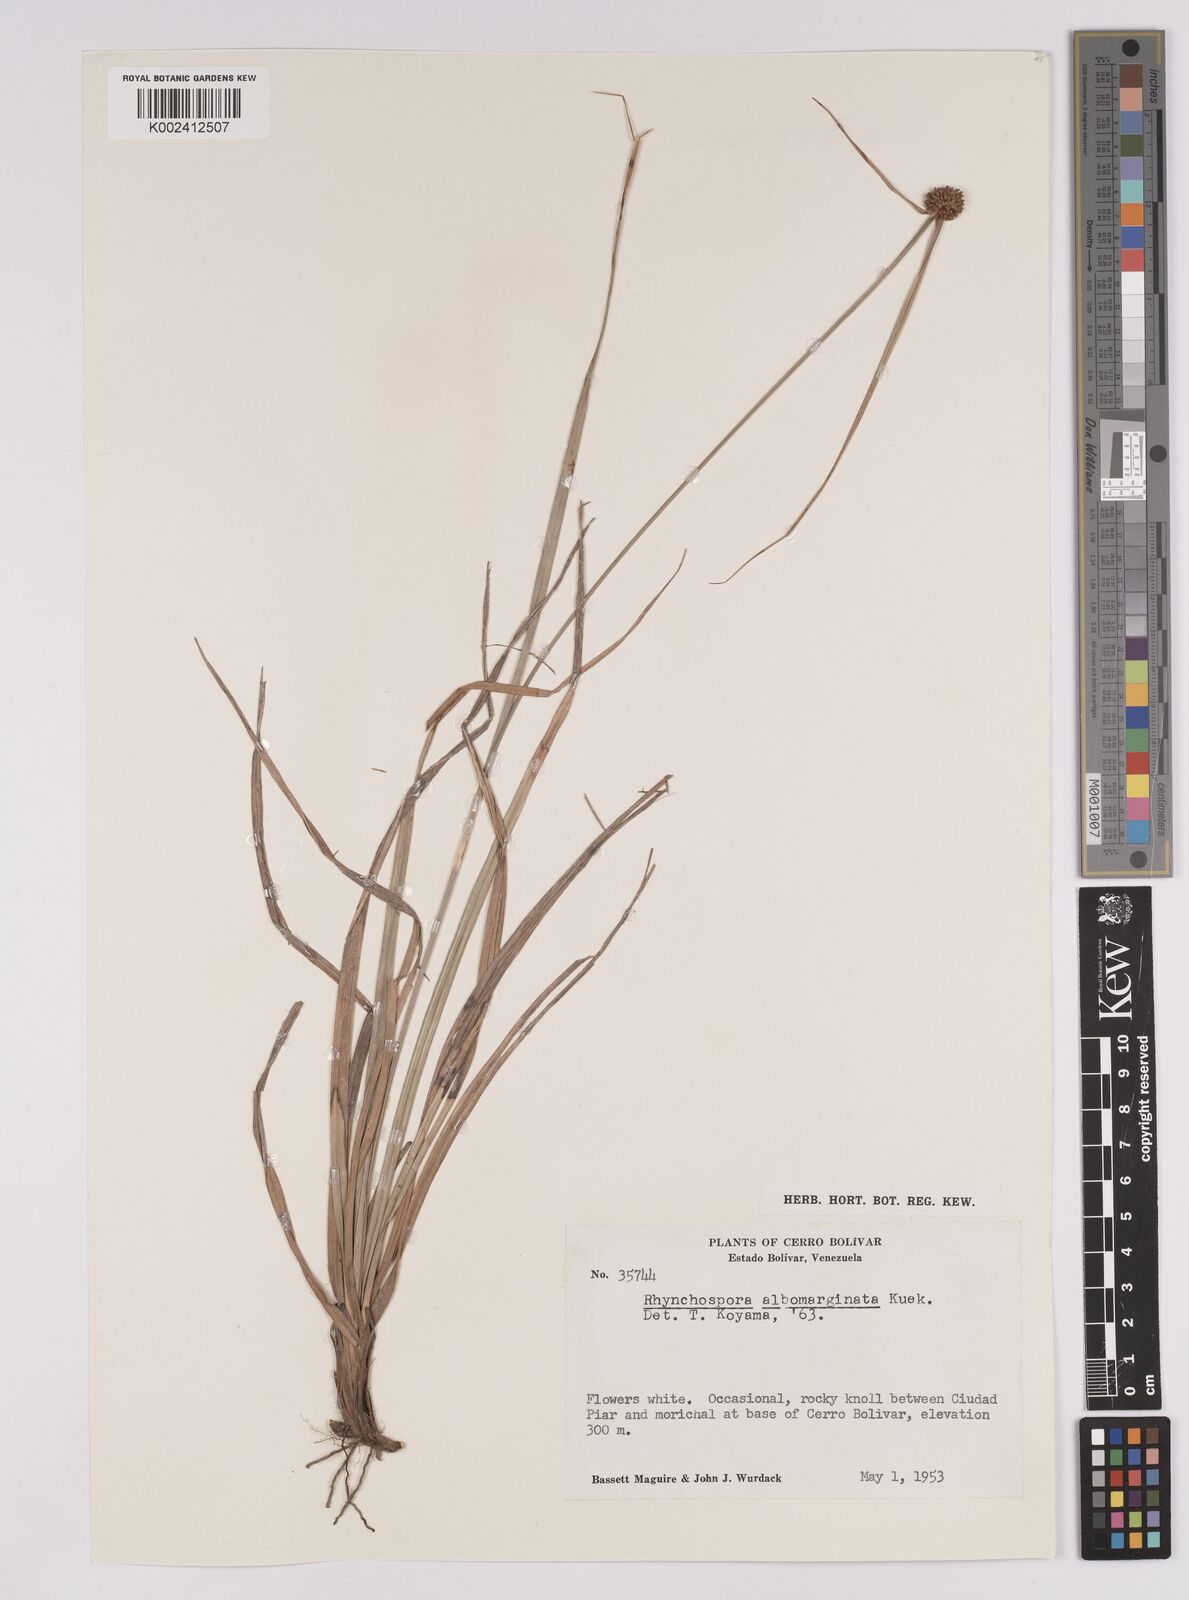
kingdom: Plantae
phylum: Tracheophyta
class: Liliopsida
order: Poales
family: Cyperaceae
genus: Rhynchospora
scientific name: Rhynchospora albomarginata
